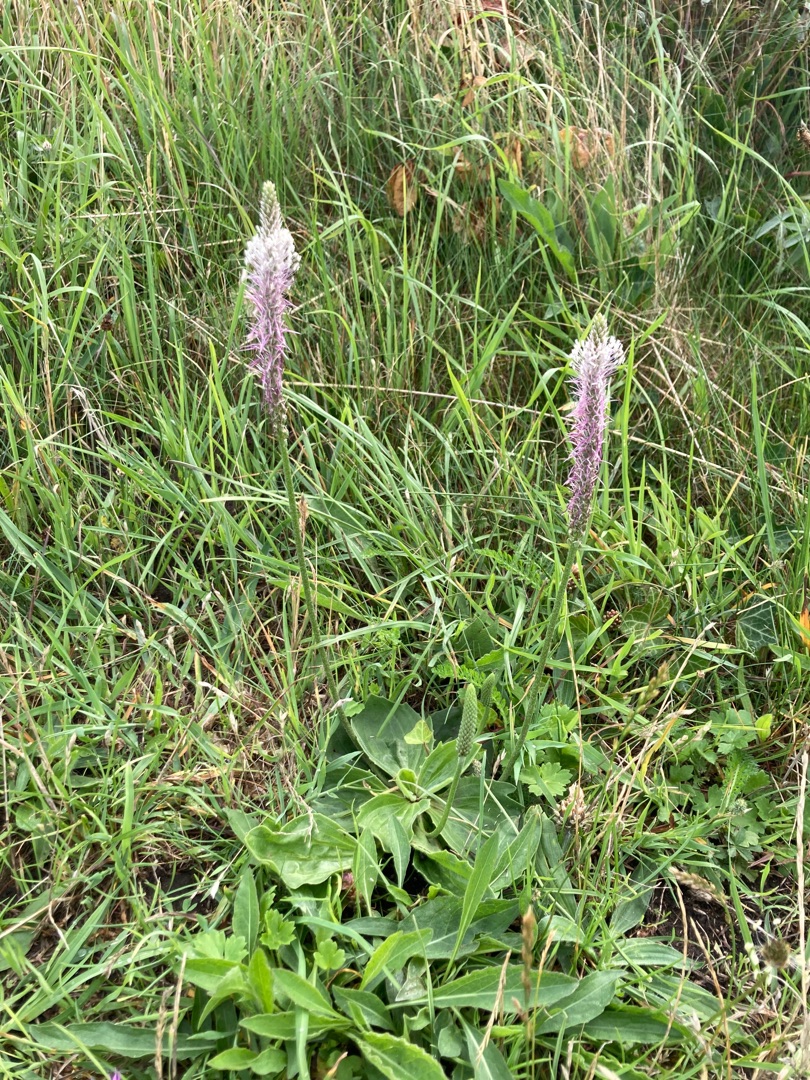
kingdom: Plantae
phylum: Tracheophyta
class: Magnoliopsida
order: Lamiales
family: Plantaginaceae
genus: Plantago
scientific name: Plantago media
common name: Dunet vejbred
